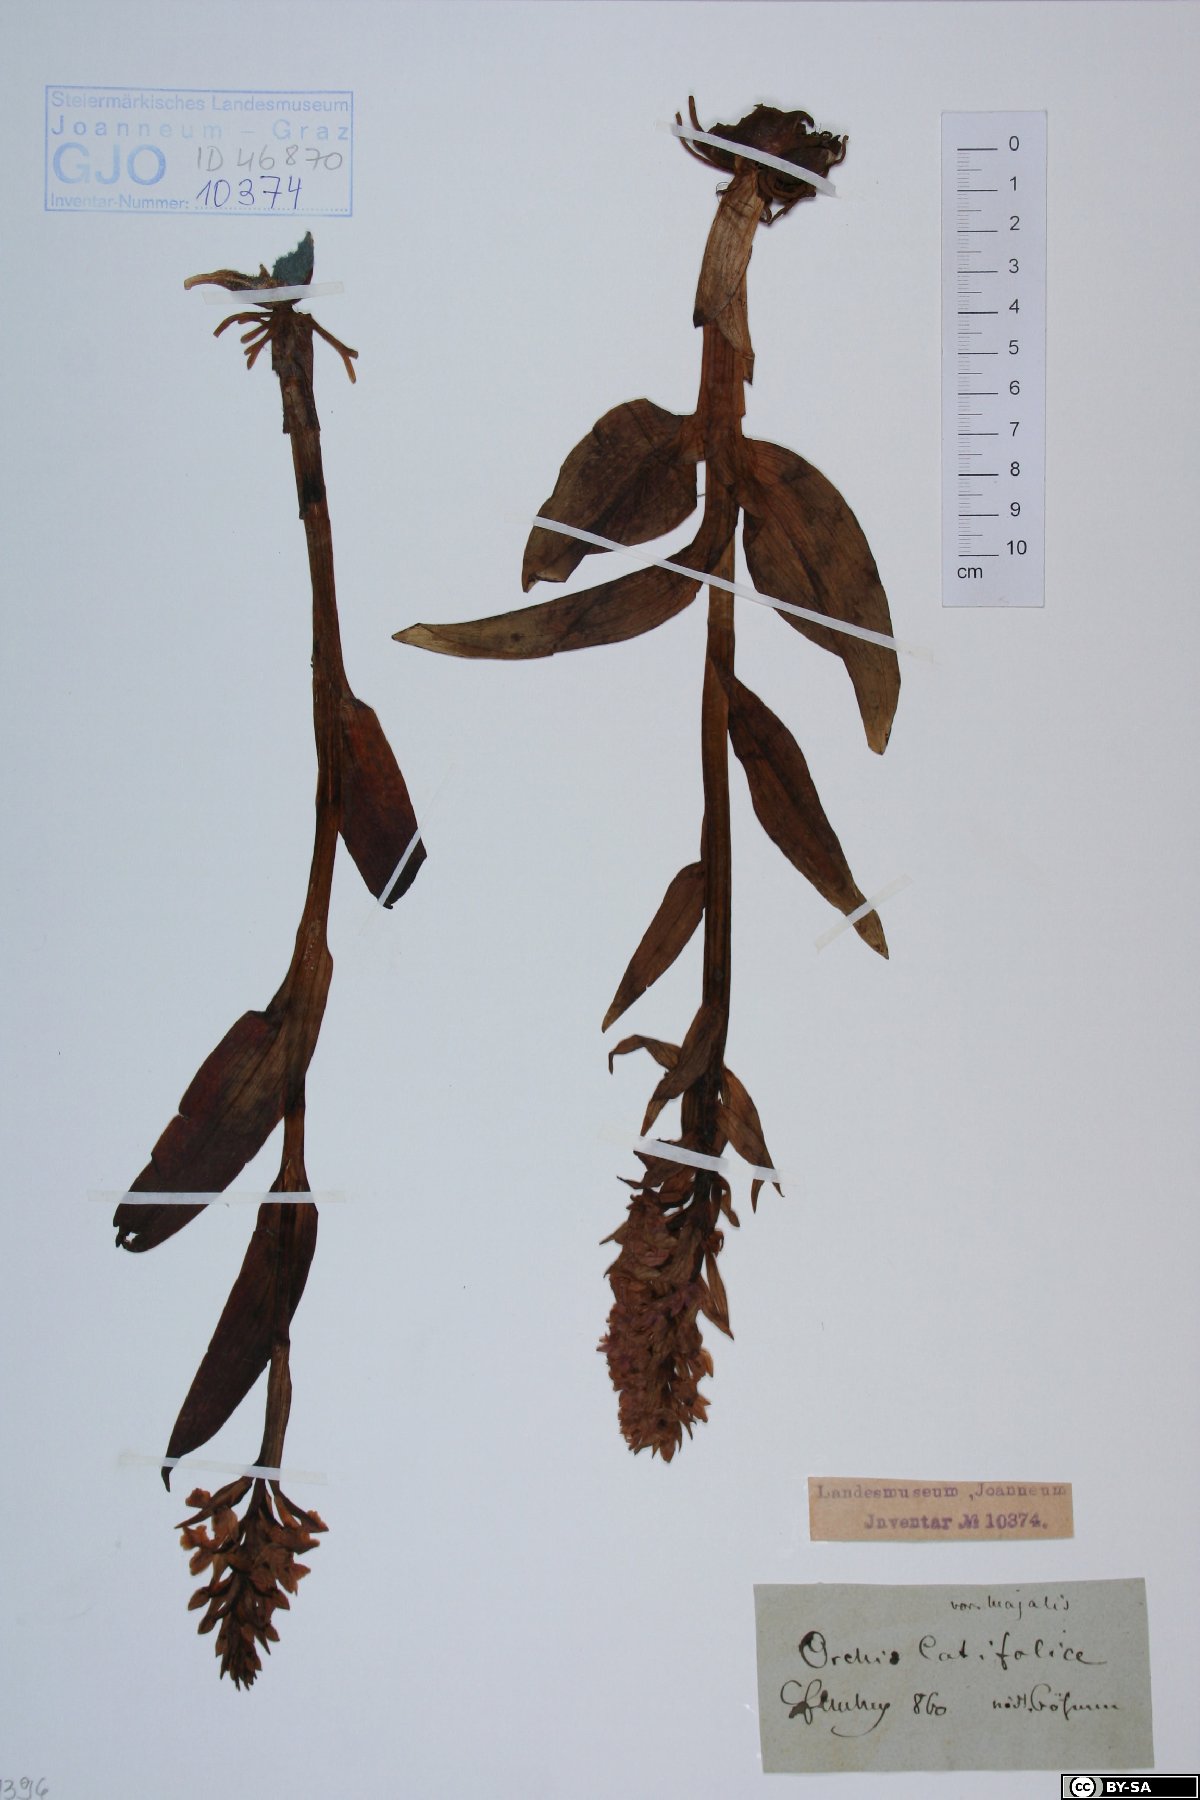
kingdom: Plantae
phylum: Tracheophyta
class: Liliopsida
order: Asparagales
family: Orchidaceae
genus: Dactylorhiza
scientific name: Dactylorhiza majalis
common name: Marsh orchid
